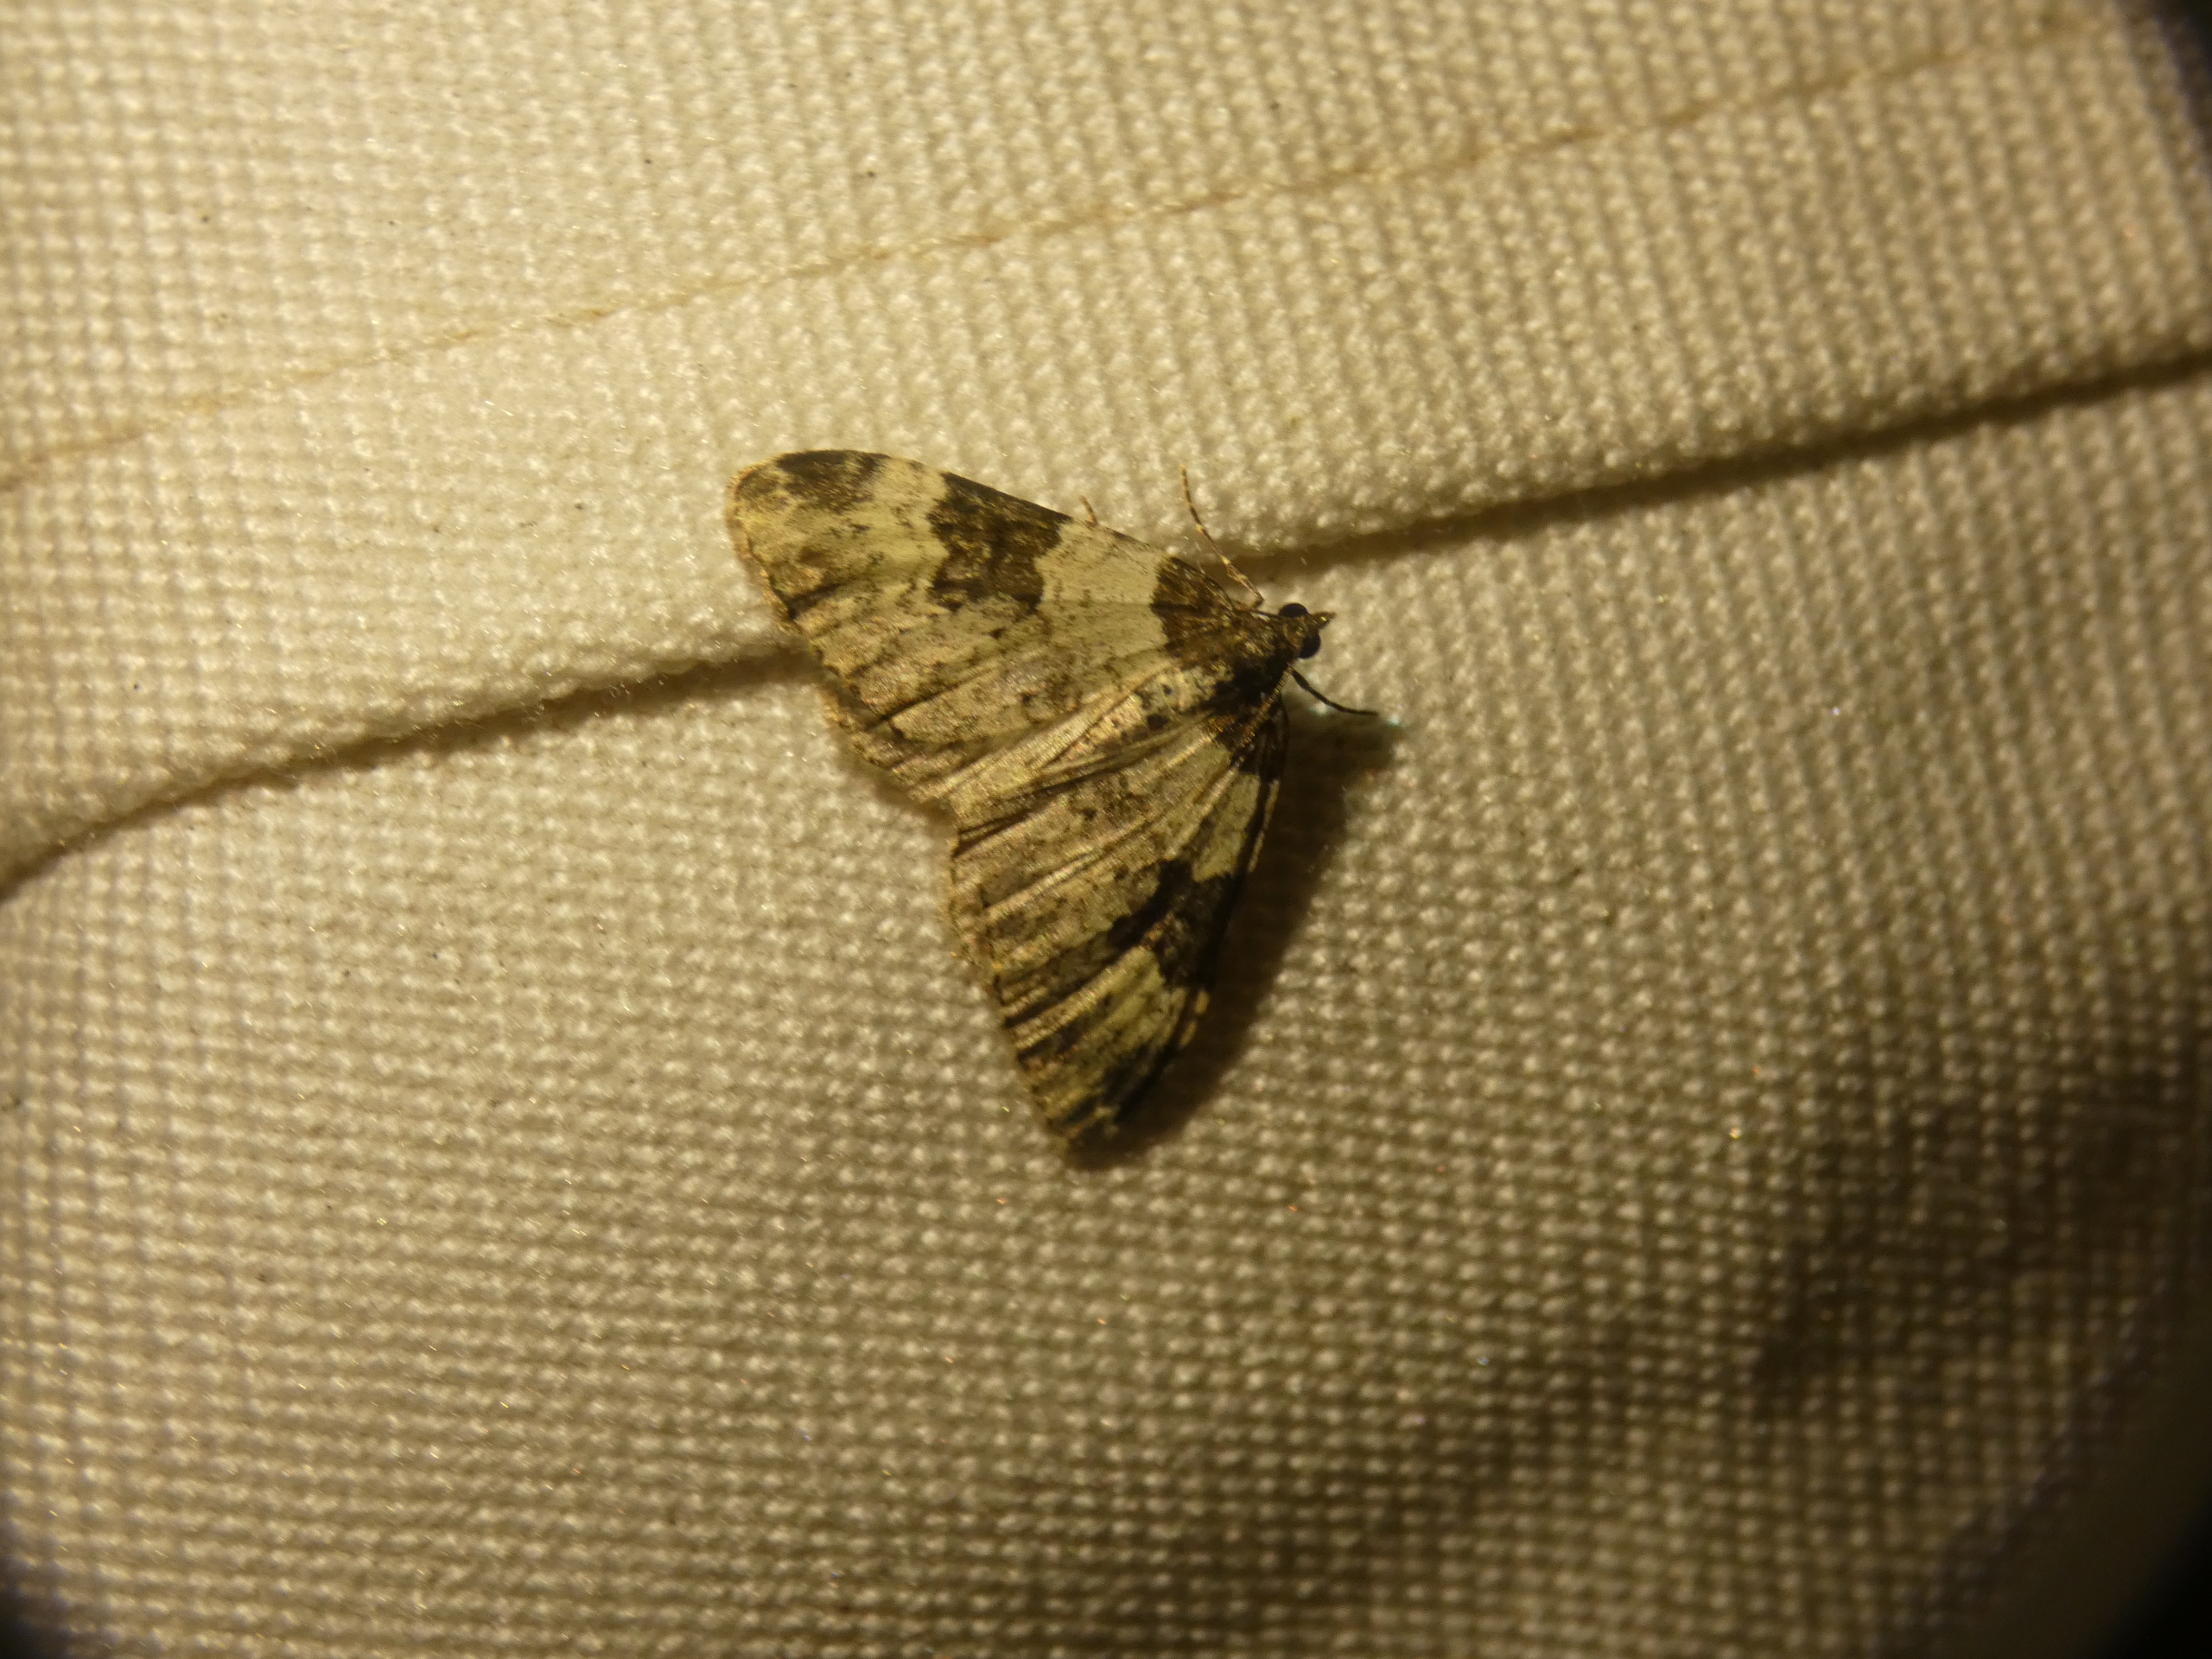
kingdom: Animalia
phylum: Arthropoda
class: Insecta
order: Lepidoptera
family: Geometridae
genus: Xanthorhoe
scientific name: Xanthorhoe fluctuata
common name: Sortbæltet bladmåler
